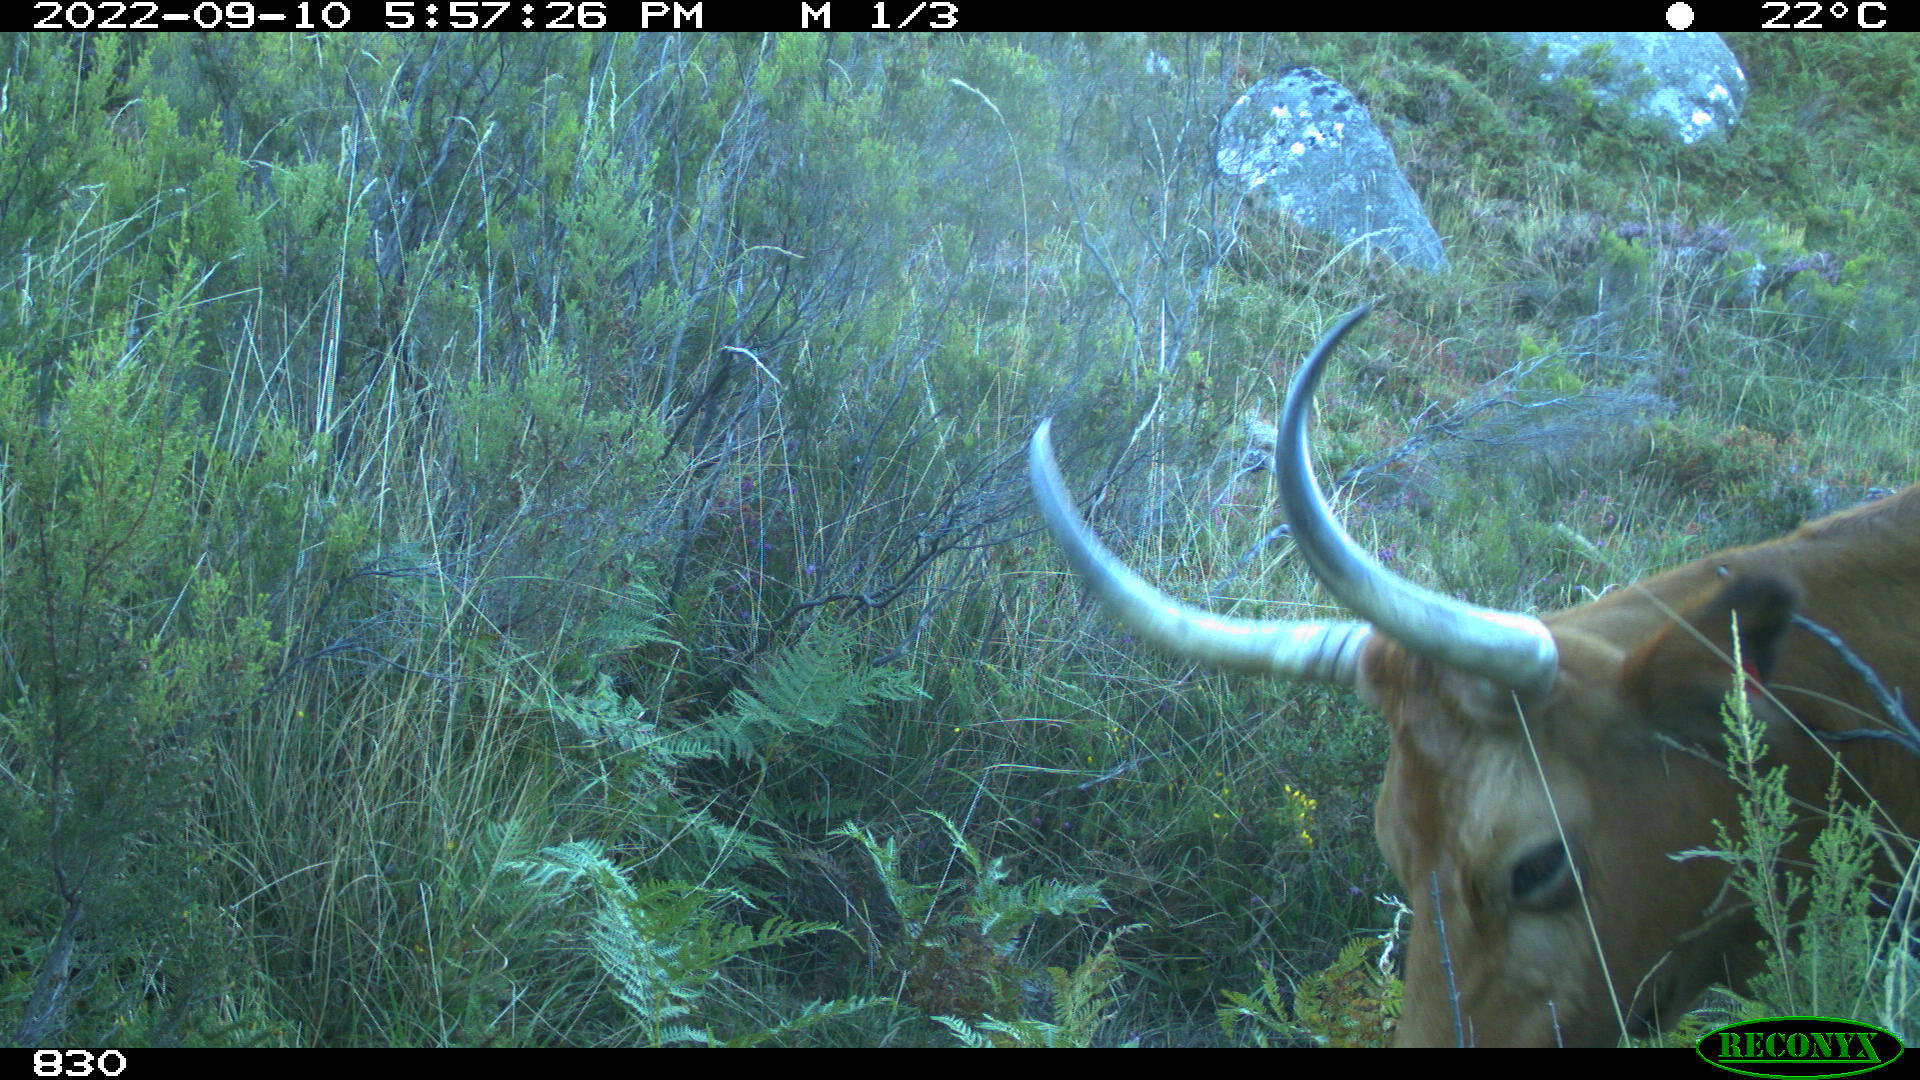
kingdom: Animalia
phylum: Chordata
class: Mammalia
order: Artiodactyla
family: Bovidae
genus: Bos
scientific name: Bos taurus
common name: Domesticated cattle
